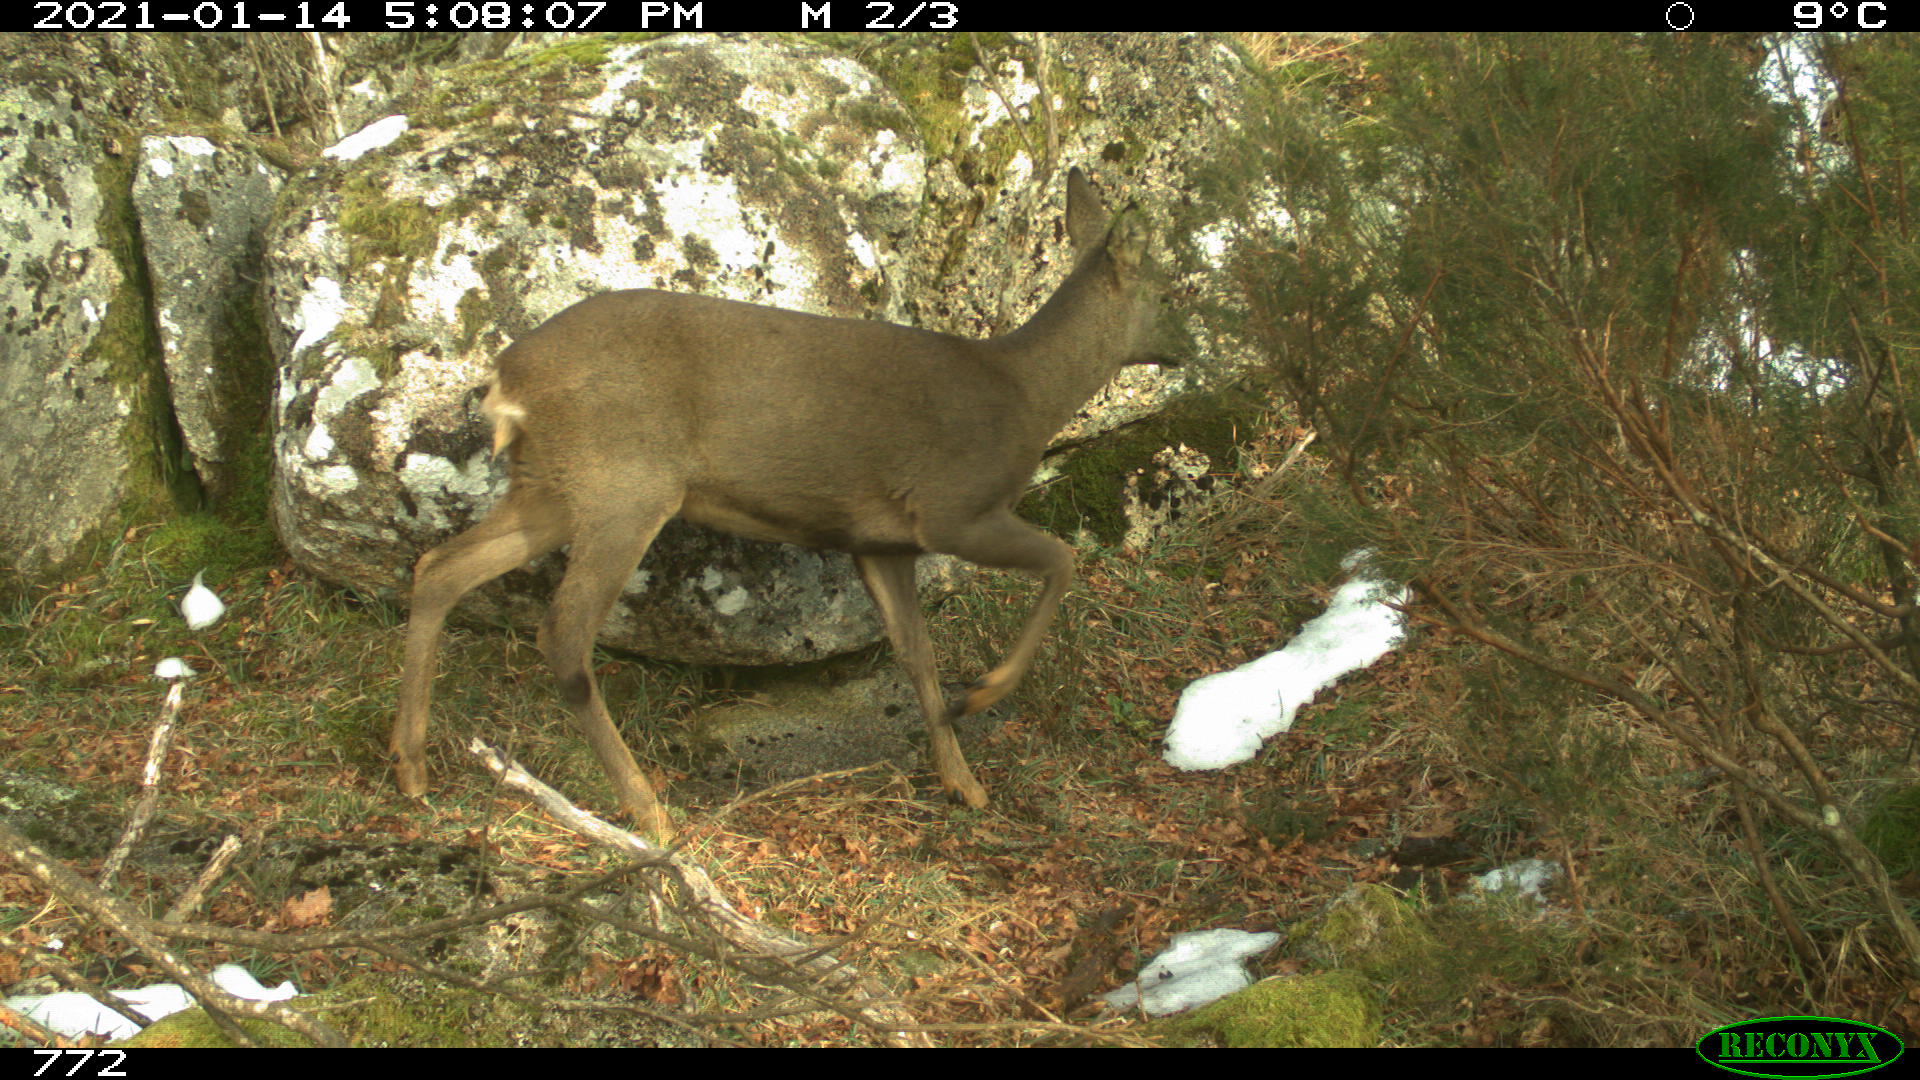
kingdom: Animalia
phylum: Chordata
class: Mammalia
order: Artiodactyla
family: Cervidae
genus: Capreolus
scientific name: Capreolus capreolus
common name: Western roe deer
